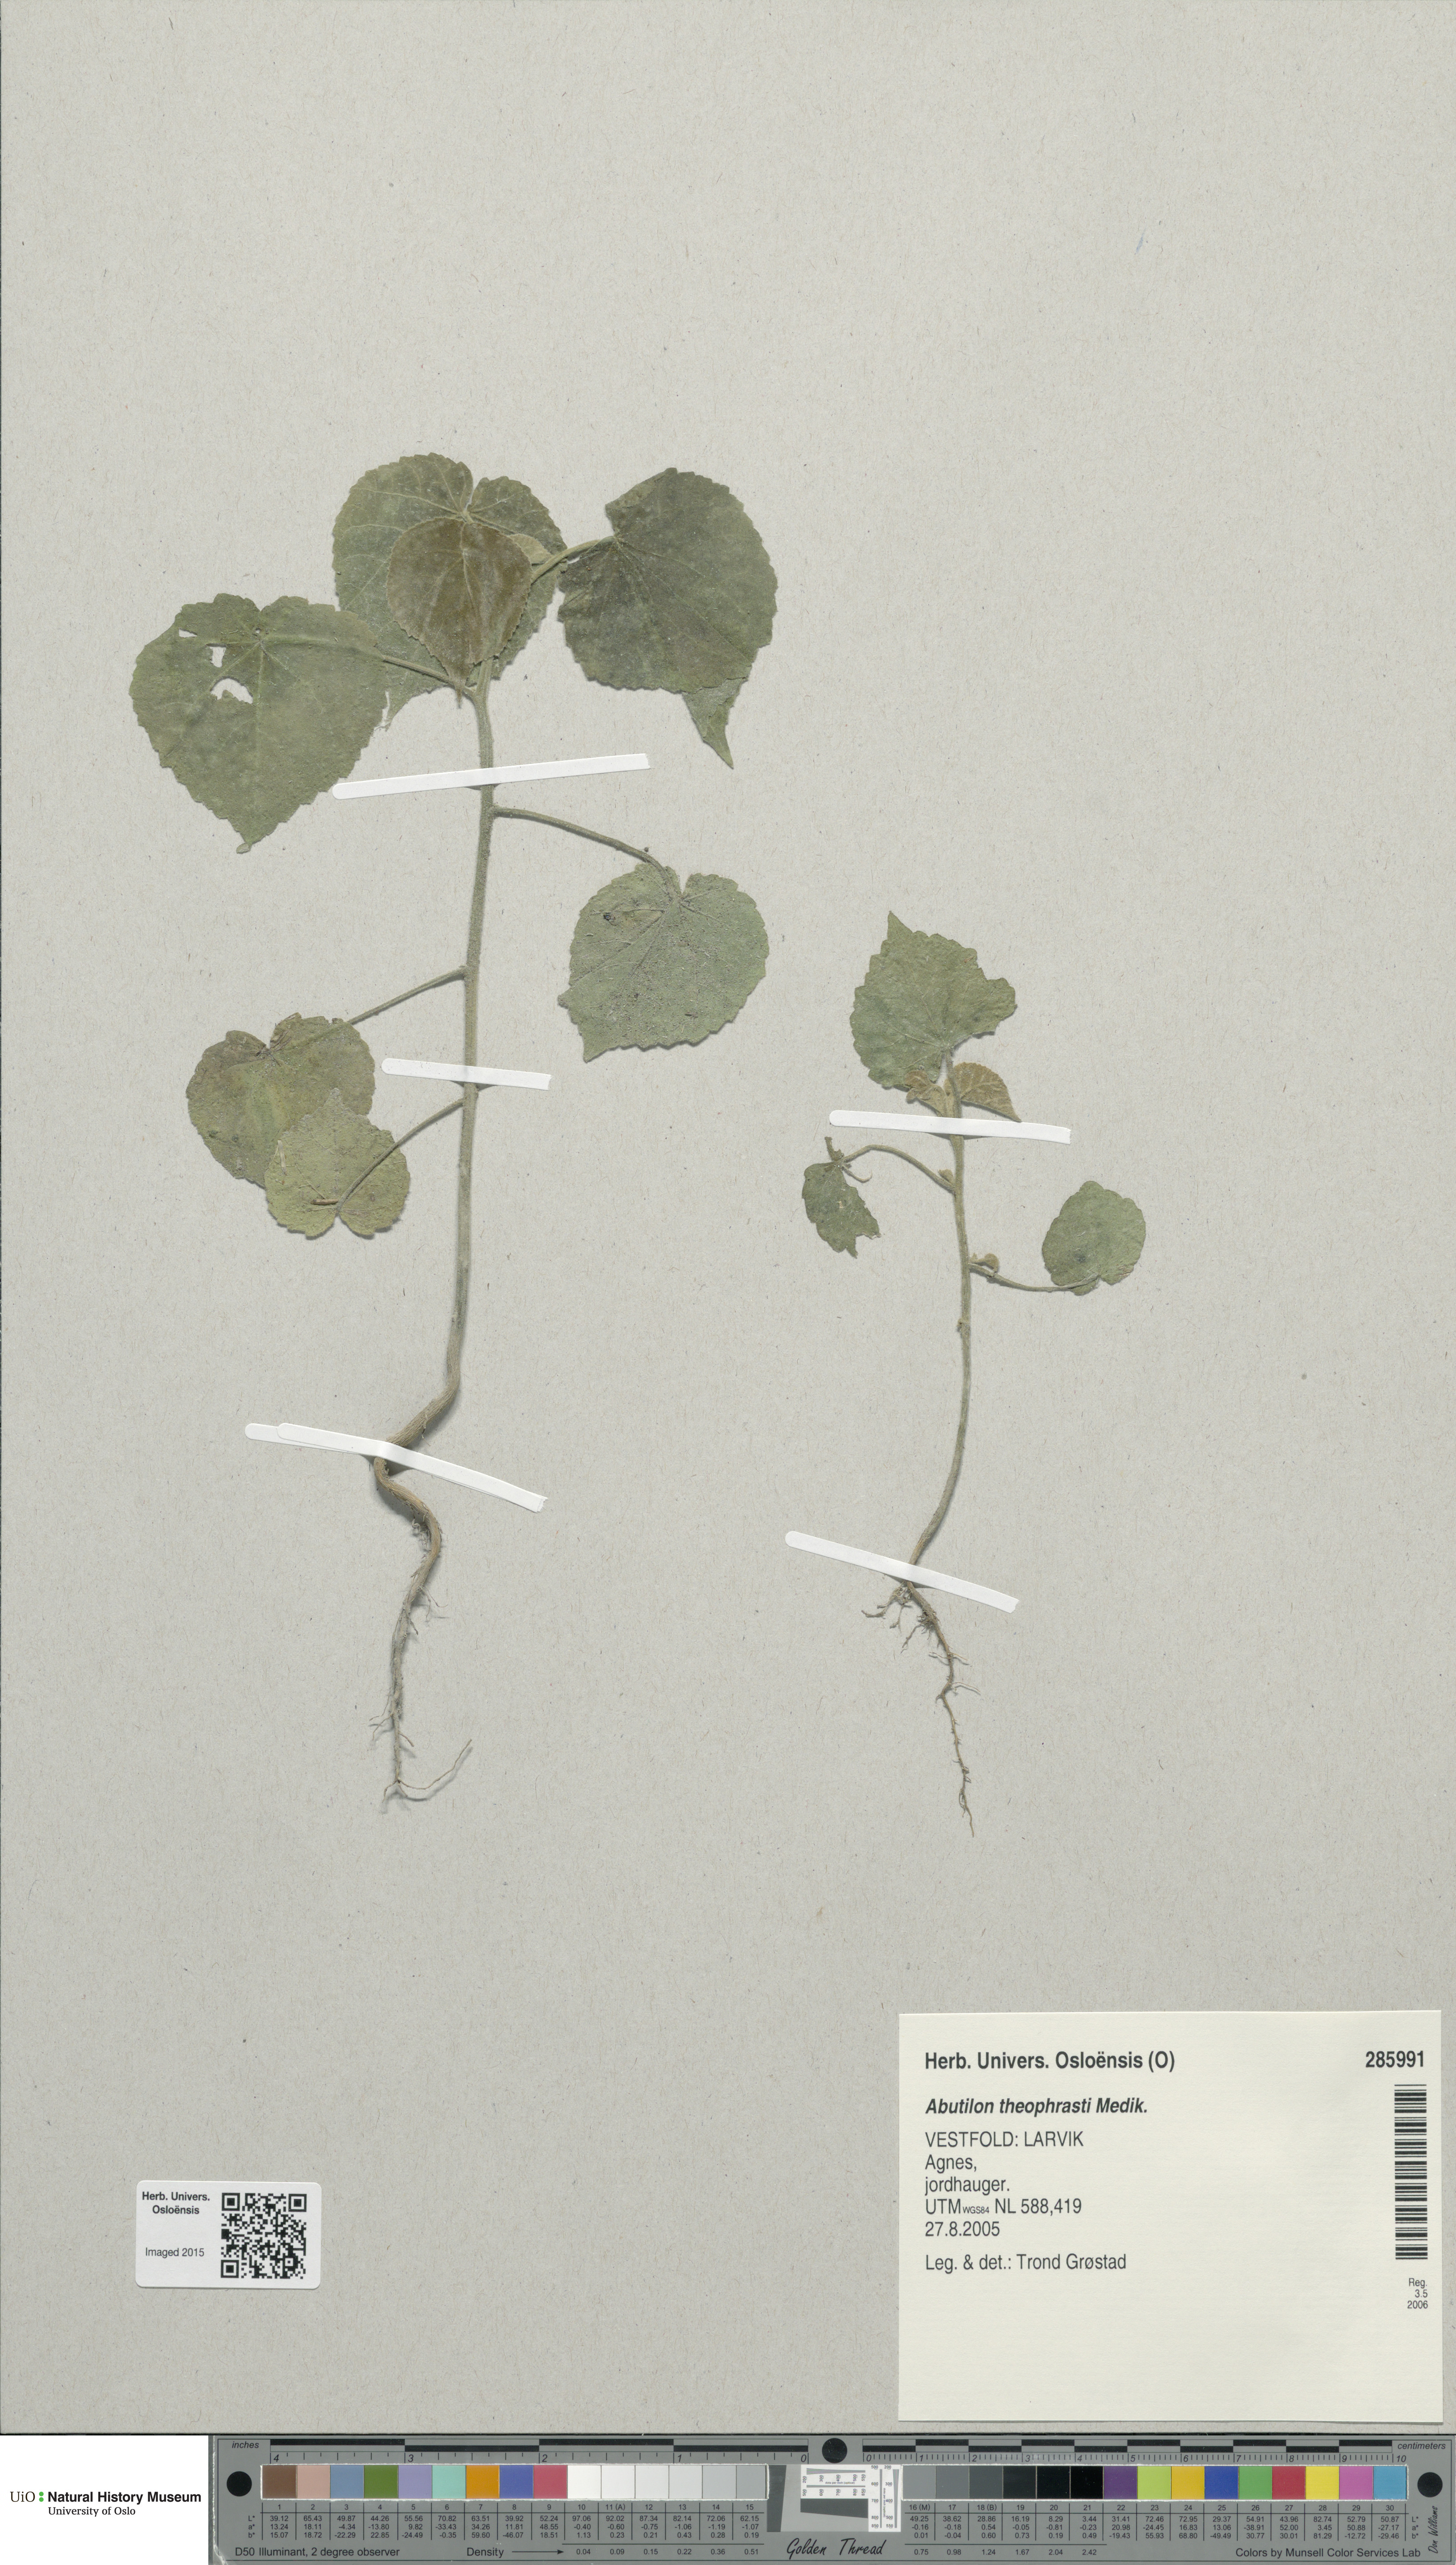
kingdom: Plantae
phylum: Tracheophyta
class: Magnoliopsida
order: Malvales
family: Malvaceae
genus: Abutilon
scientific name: Abutilon theophrasti
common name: Velvetleaf
